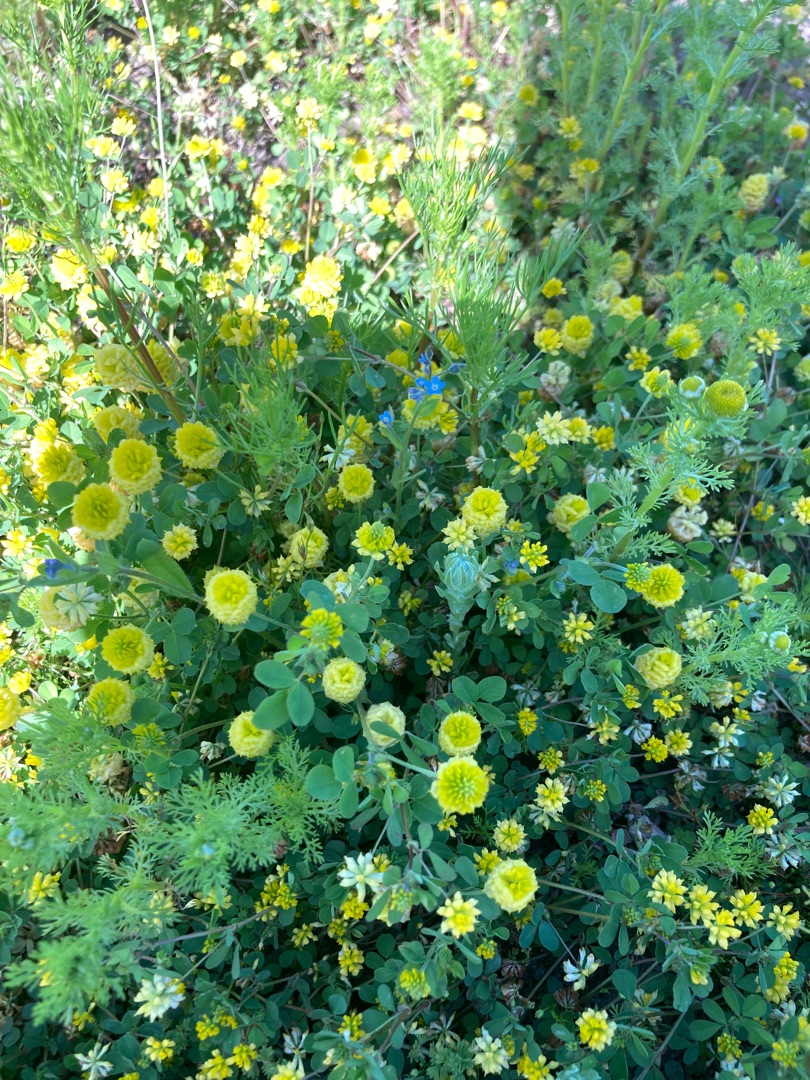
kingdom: Plantae
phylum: Tracheophyta
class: Magnoliopsida
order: Fabales
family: Fabaceae
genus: Trifolium
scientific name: Trifolium campestre
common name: Gul kløver
